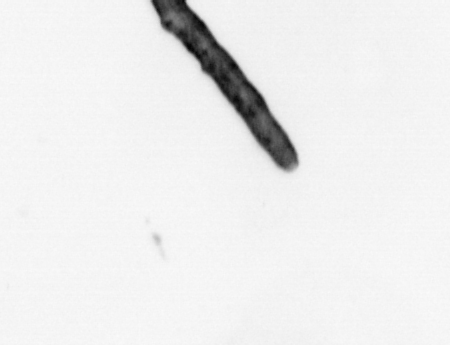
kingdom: Animalia
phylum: Annelida
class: Polychaeta
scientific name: Polychaeta
